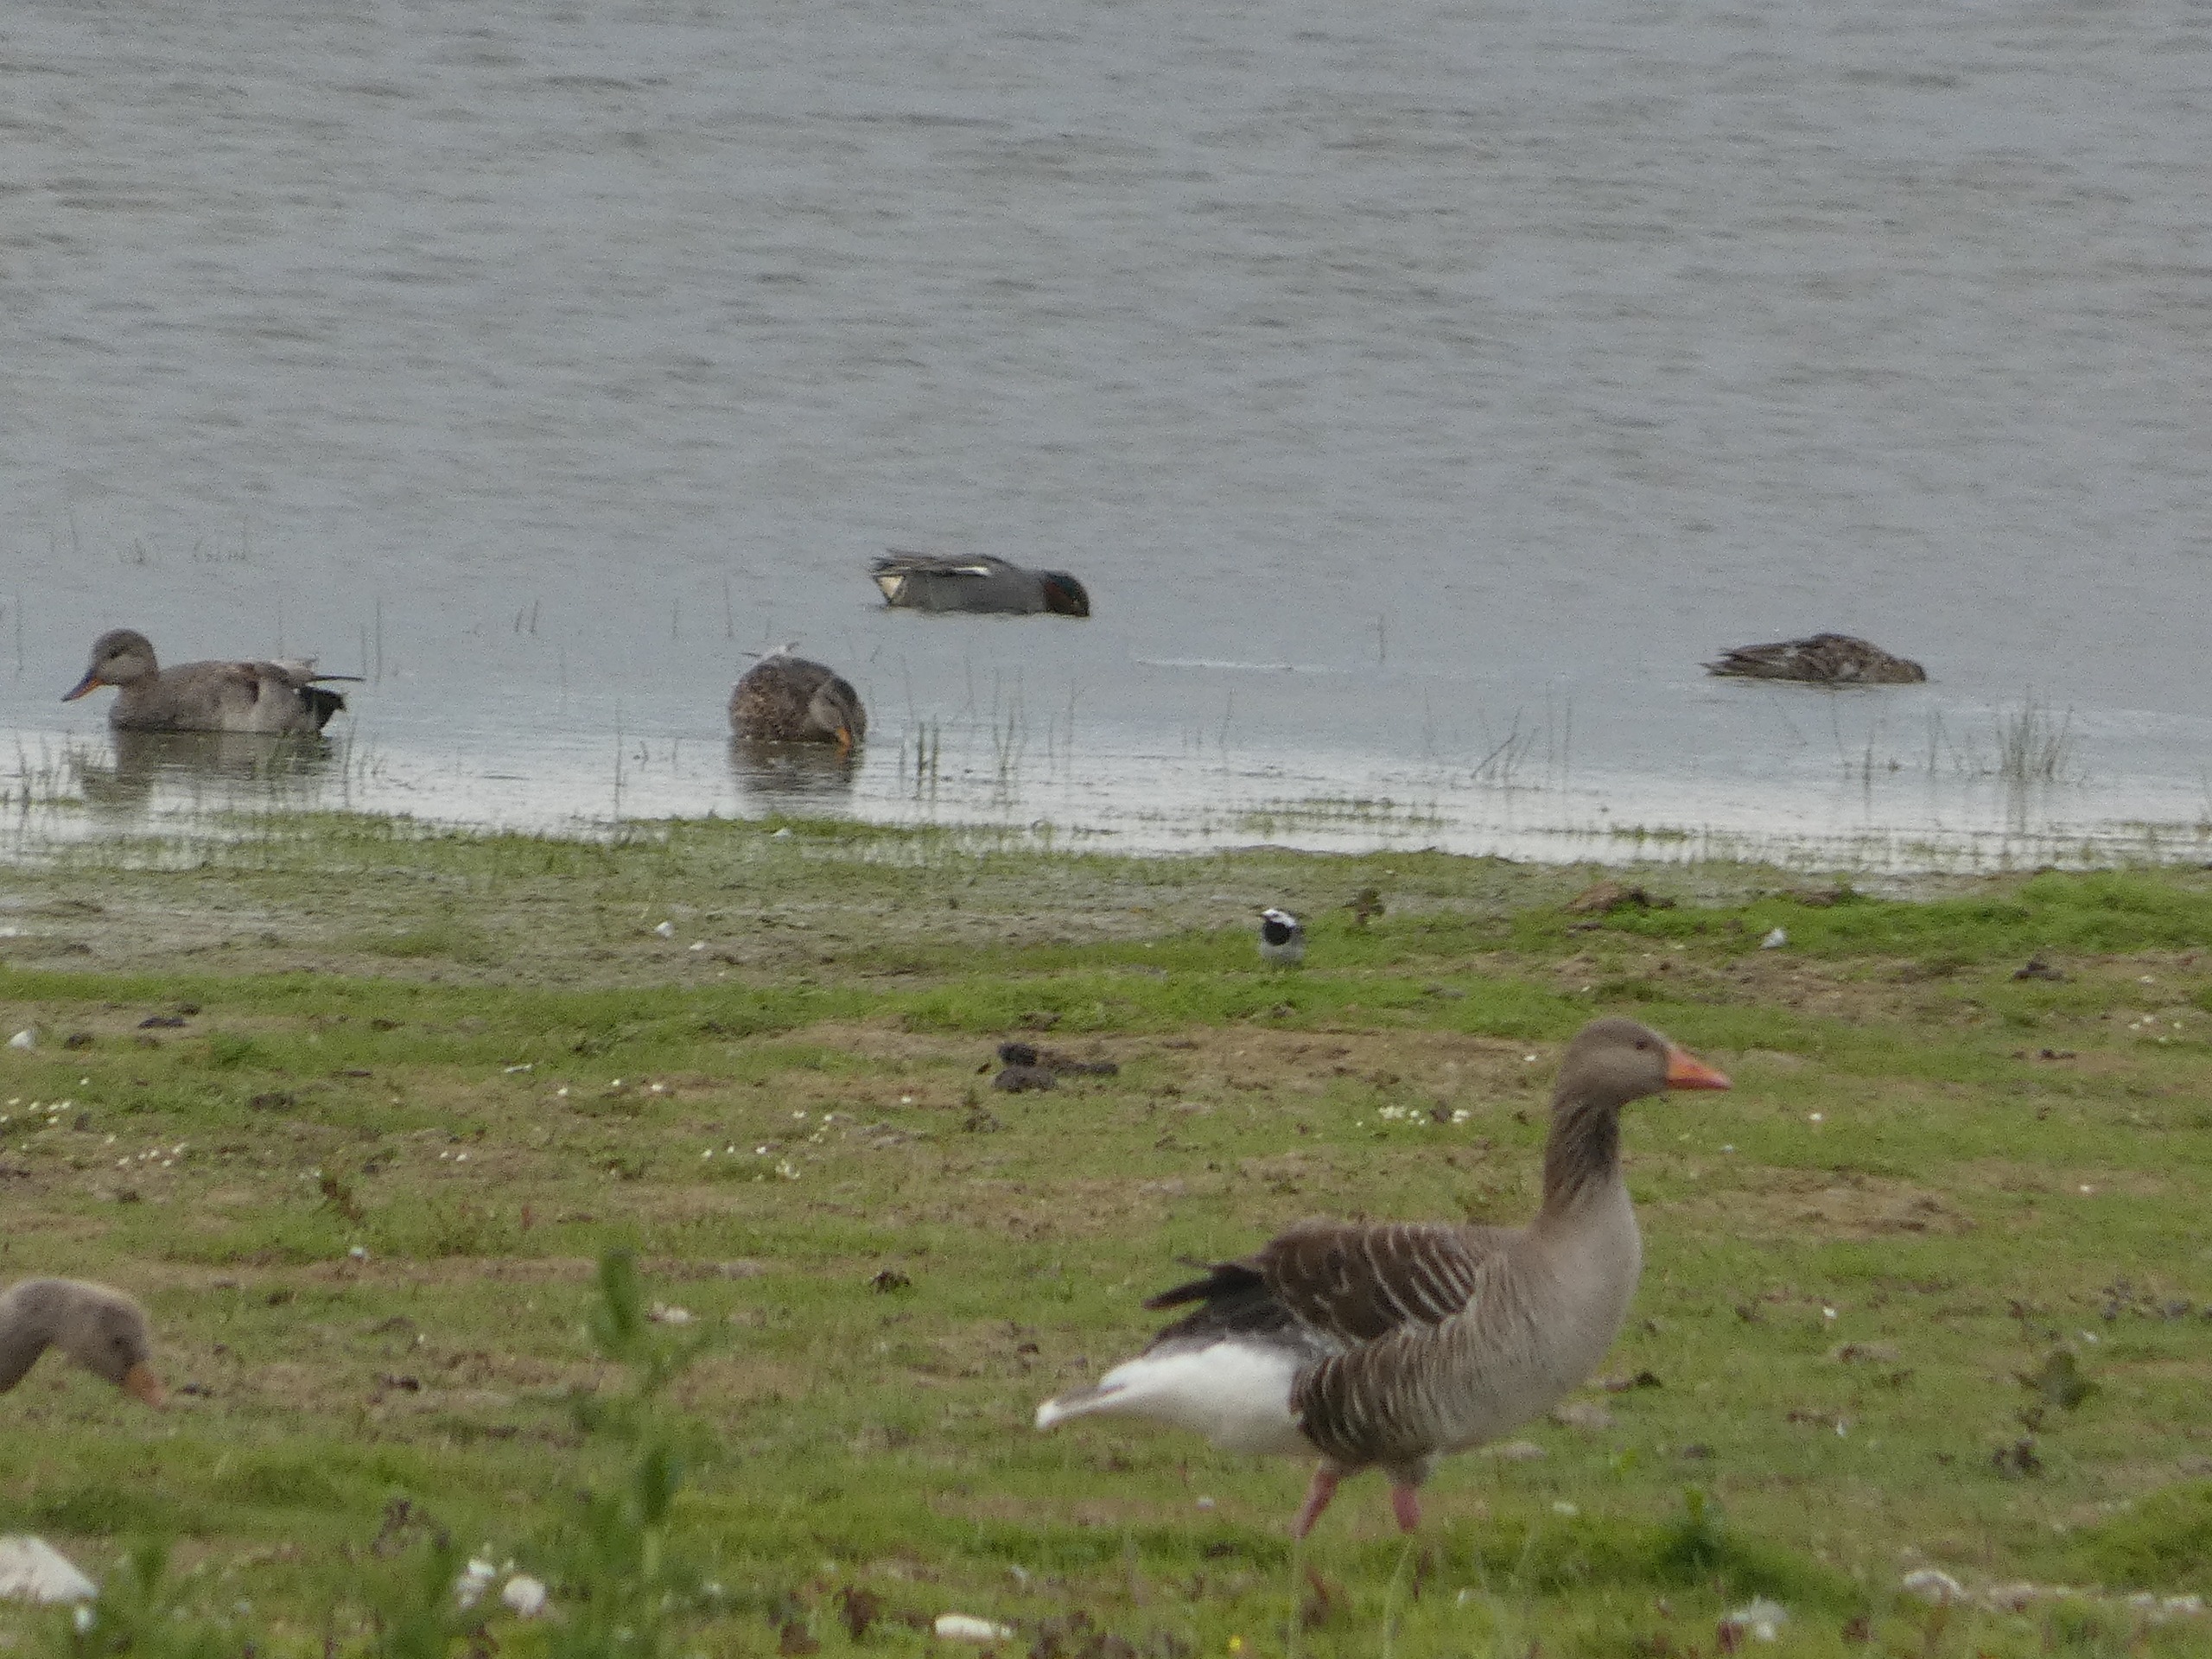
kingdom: Animalia
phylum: Chordata
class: Aves
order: Passeriformes
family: Motacillidae
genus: Motacilla
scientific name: Motacilla alba
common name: Hvid vipstjert
